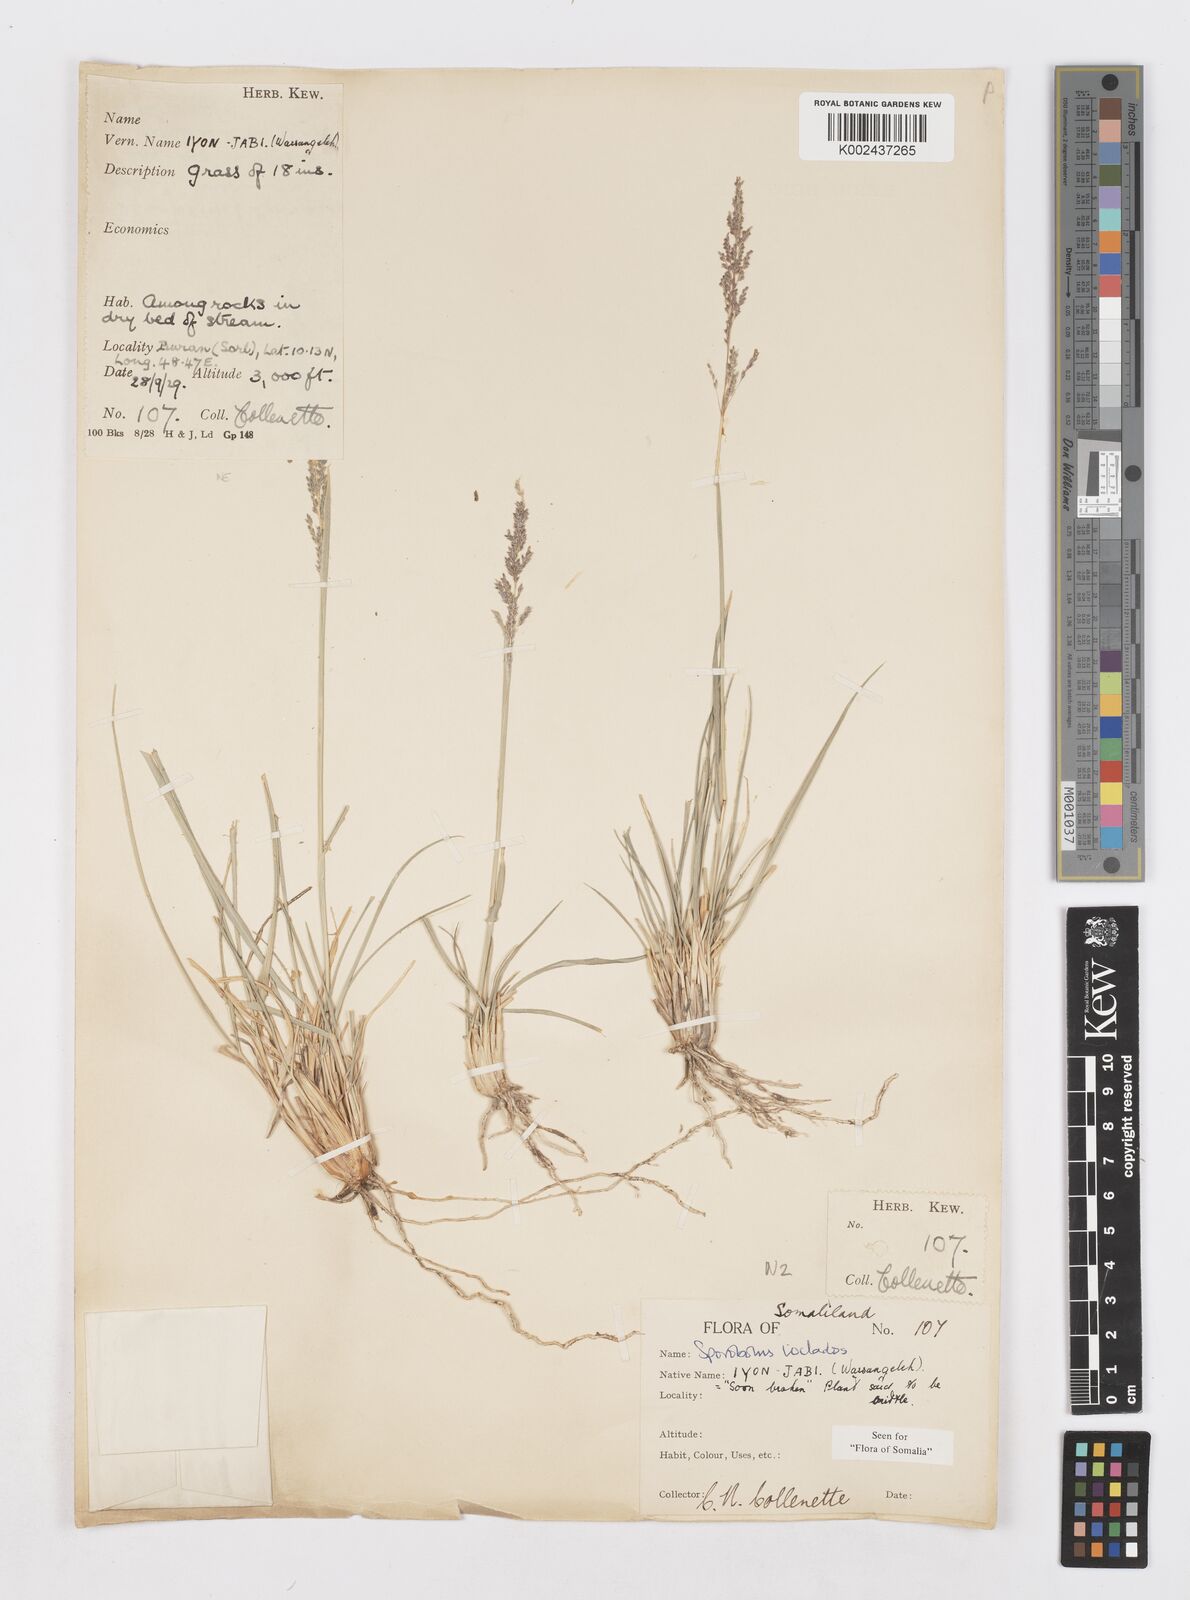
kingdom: Plantae
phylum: Tracheophyta
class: Liliopsida
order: Poales
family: Poaceae
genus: Sporobolus
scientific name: Sporobolus ioclados
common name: Pan dropseed
